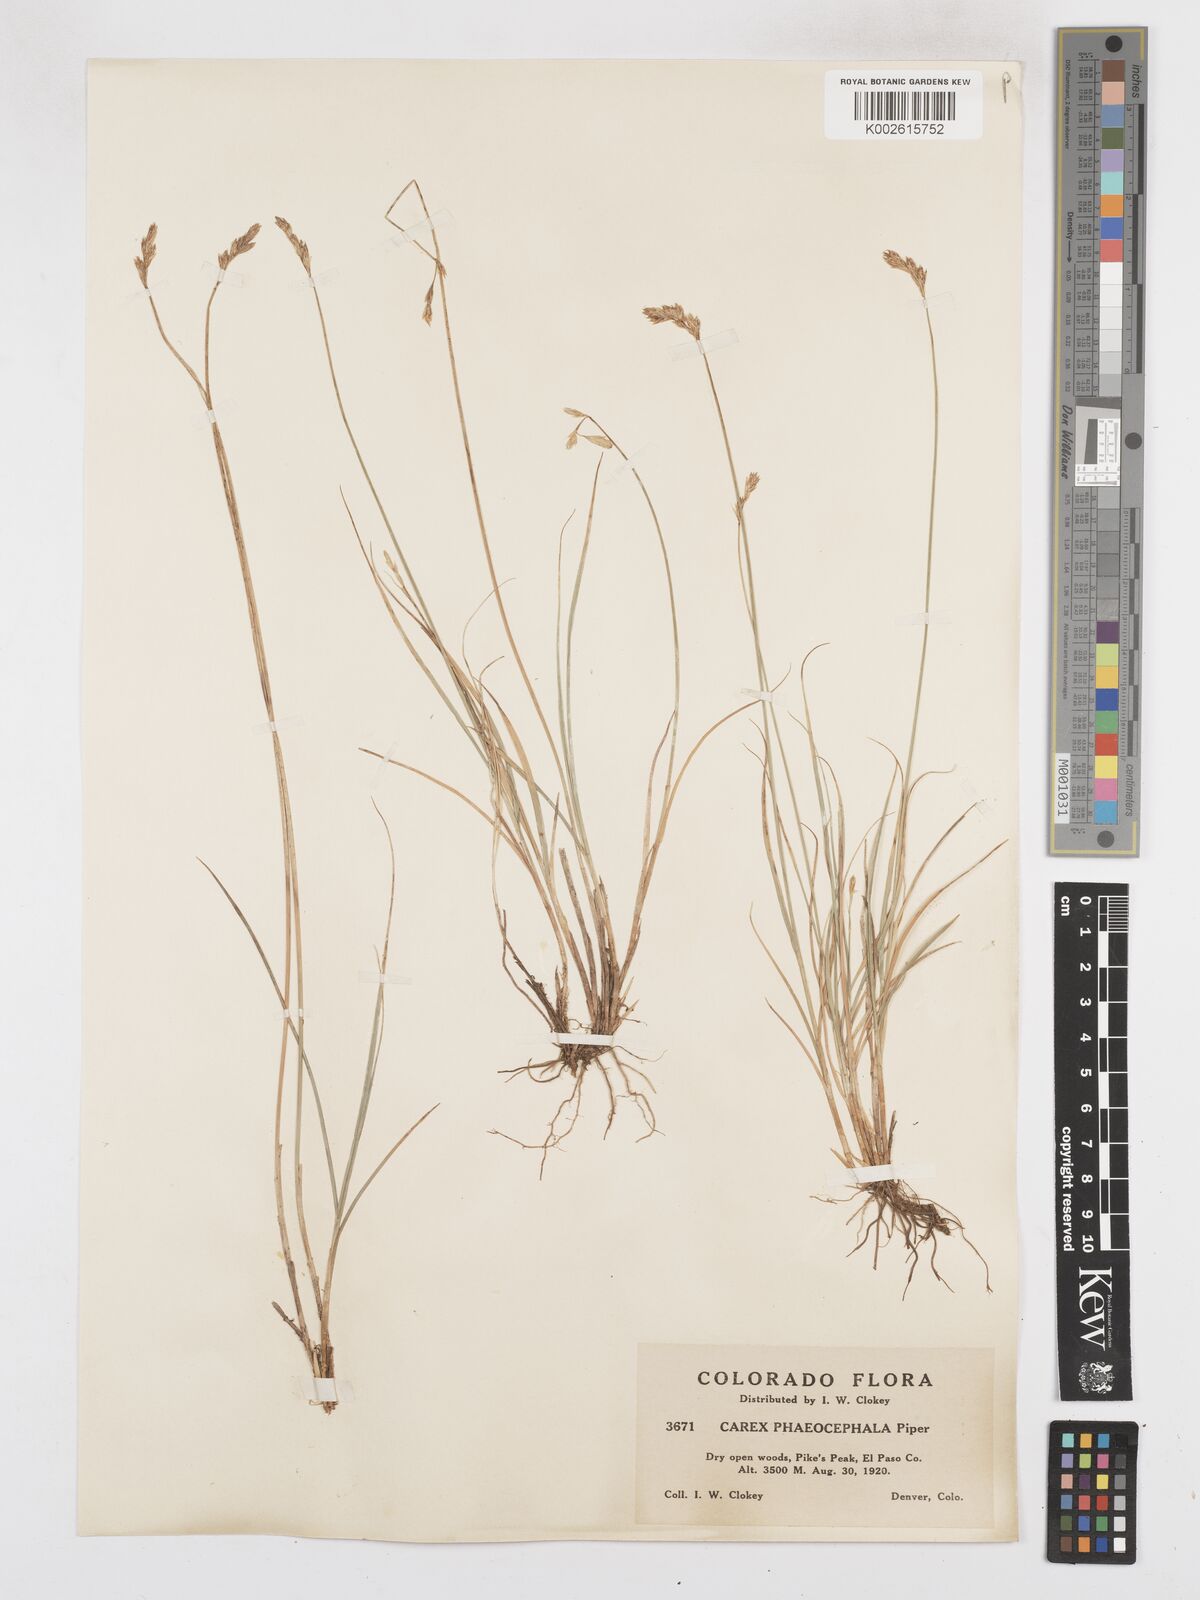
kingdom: Plantae
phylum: Tracheophyta
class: Liliopsida
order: Poales
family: Cyperaceae
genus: Carex
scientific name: Carex phaeocephala
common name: Brown-head sedge
